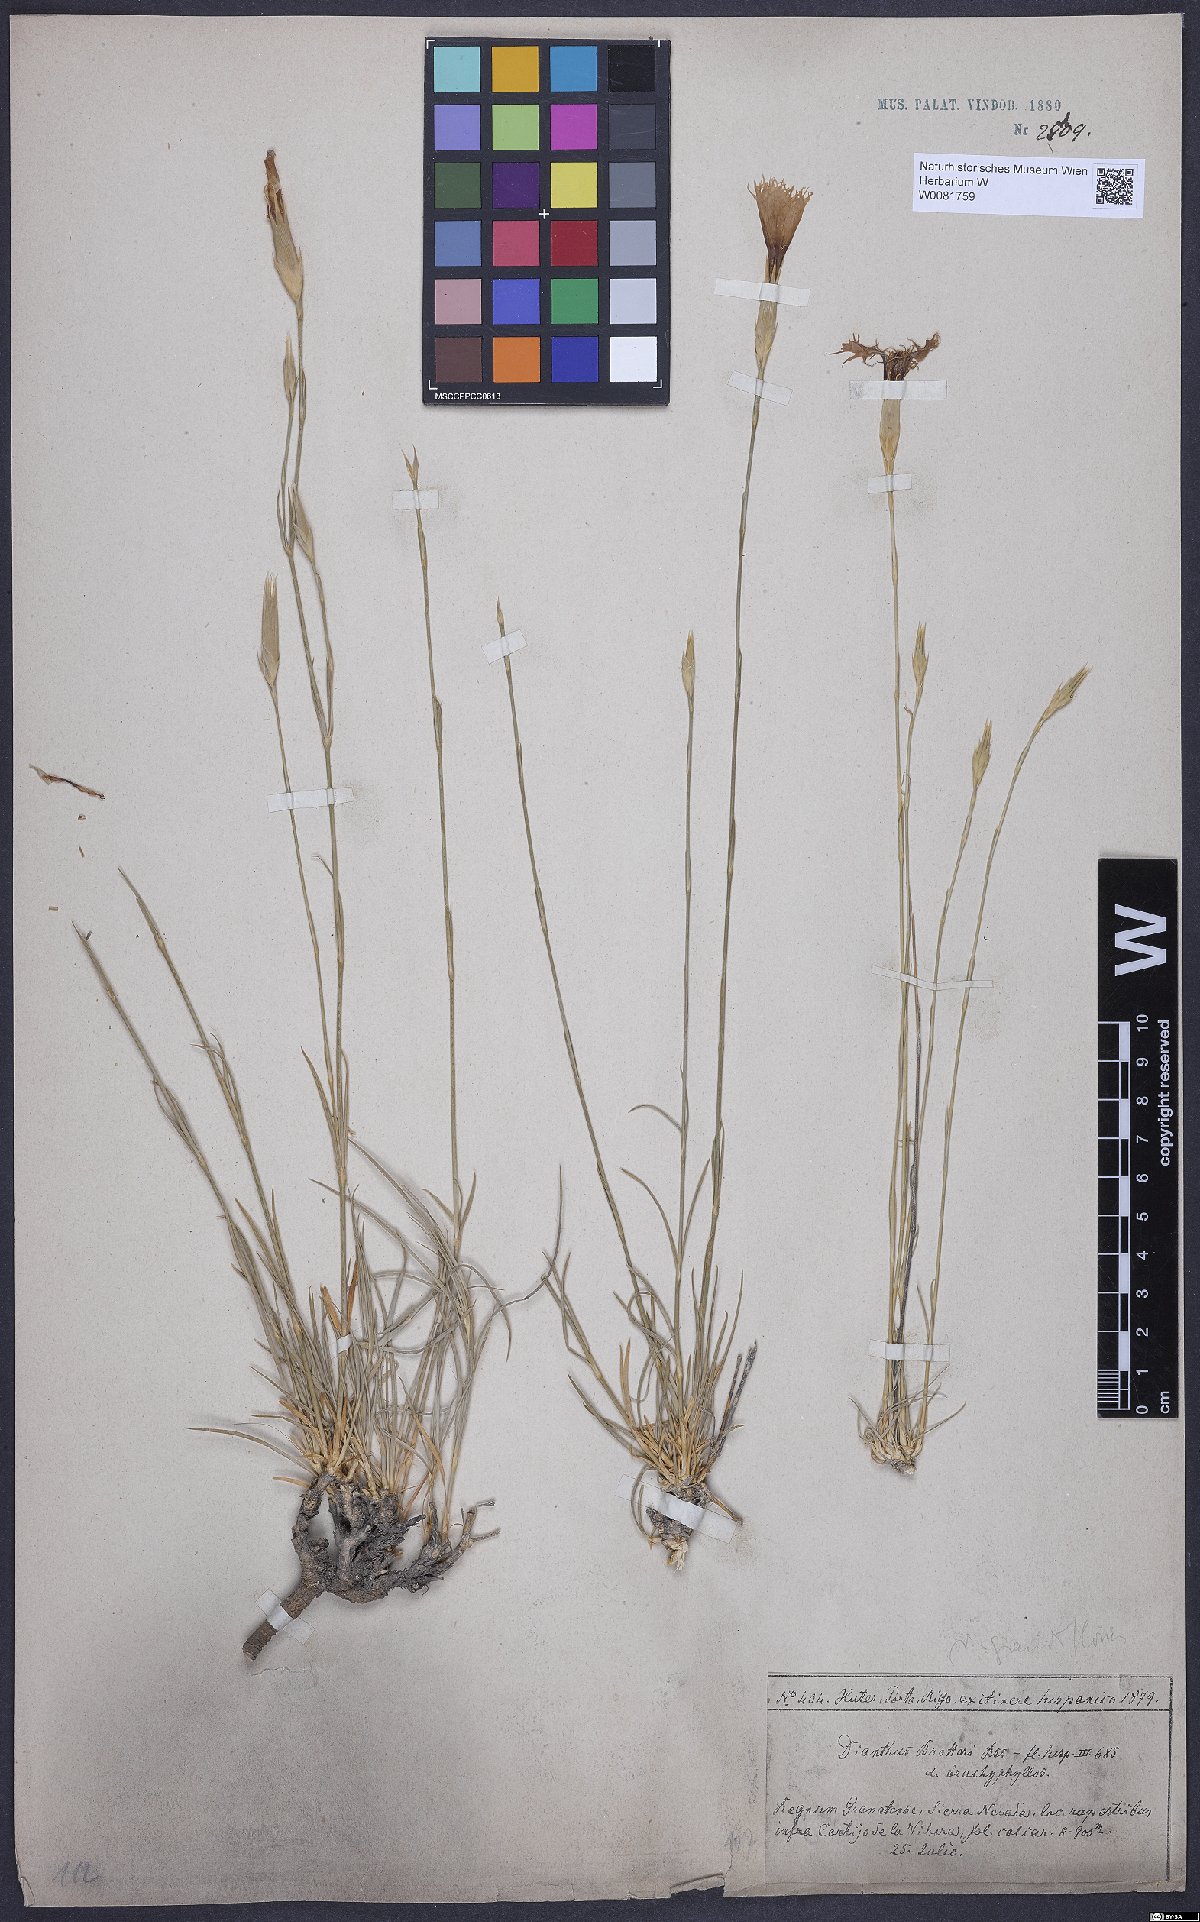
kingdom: Plantae
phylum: Tracheophyta
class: Magnoliopsida
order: Caryophyllales
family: Caryophyllaceae
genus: Dianthus
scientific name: Dianthus broteri
